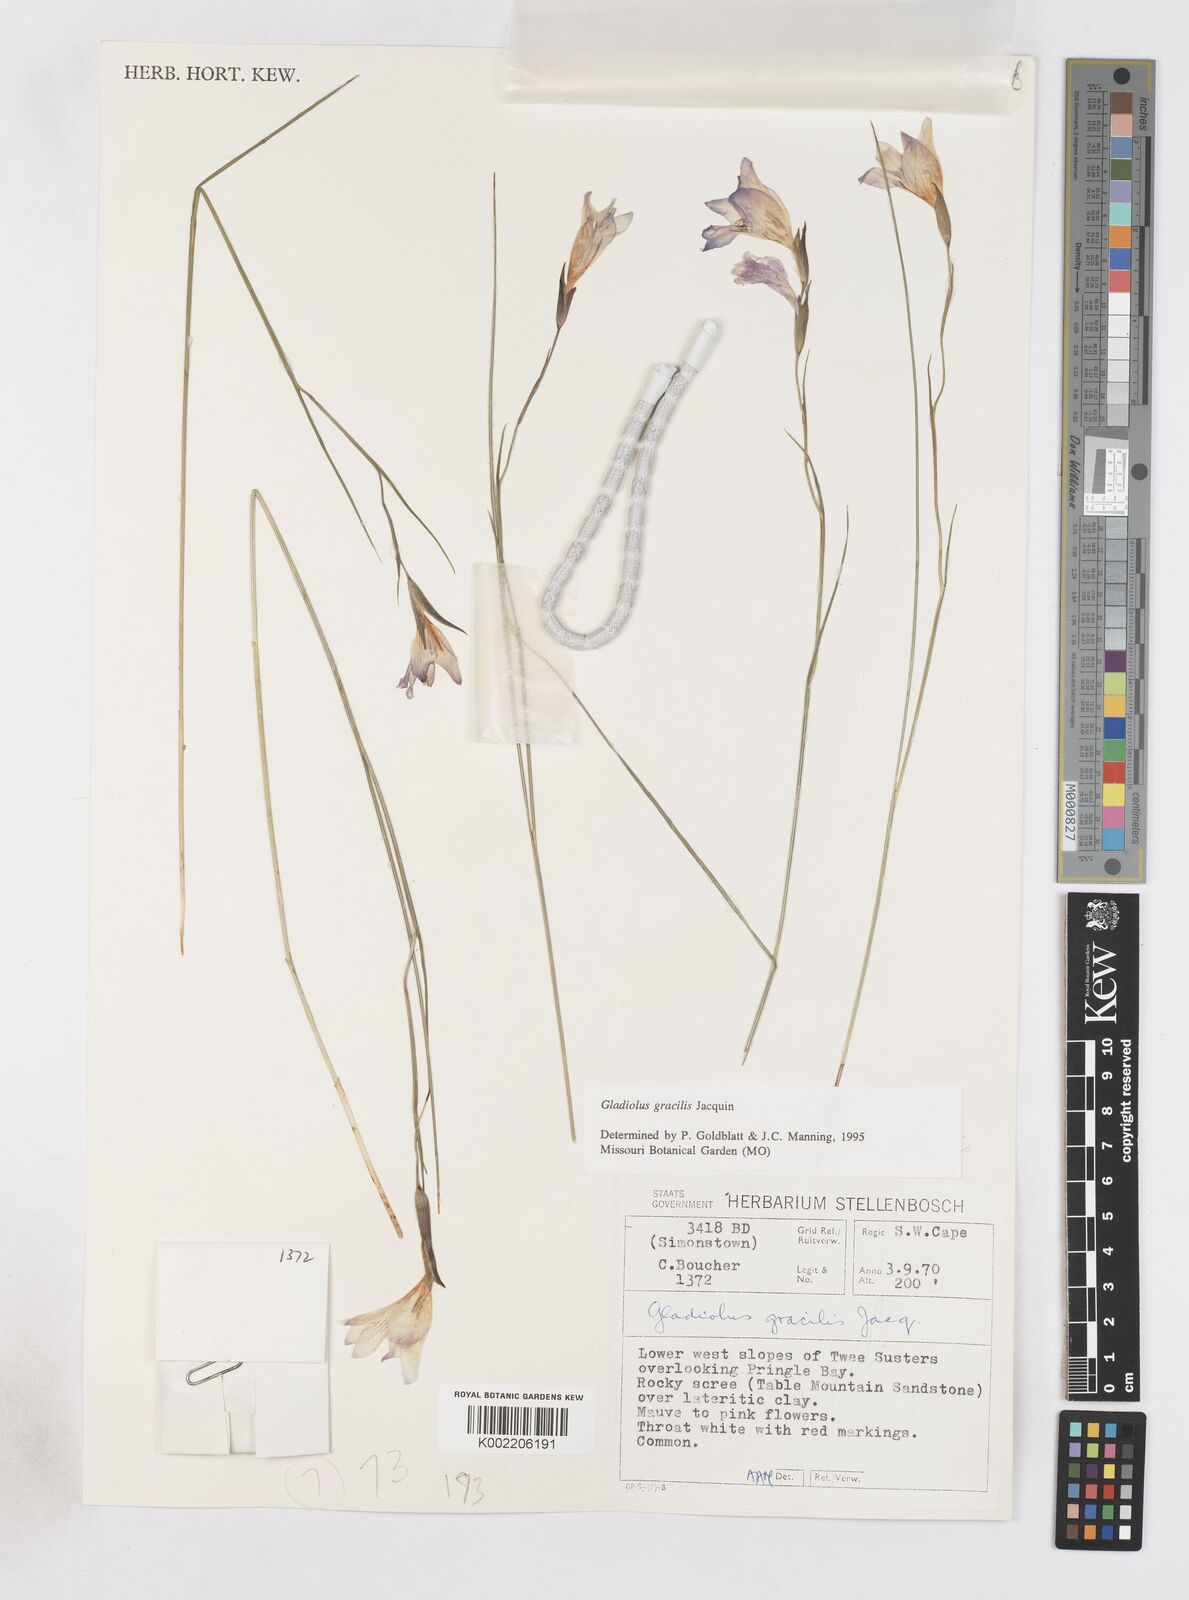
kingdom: Plantae
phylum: Tracheophyta
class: Liliopsida
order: Asparagales
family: Iridaceae
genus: Gladiolus
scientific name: Gladiolus gracilis
